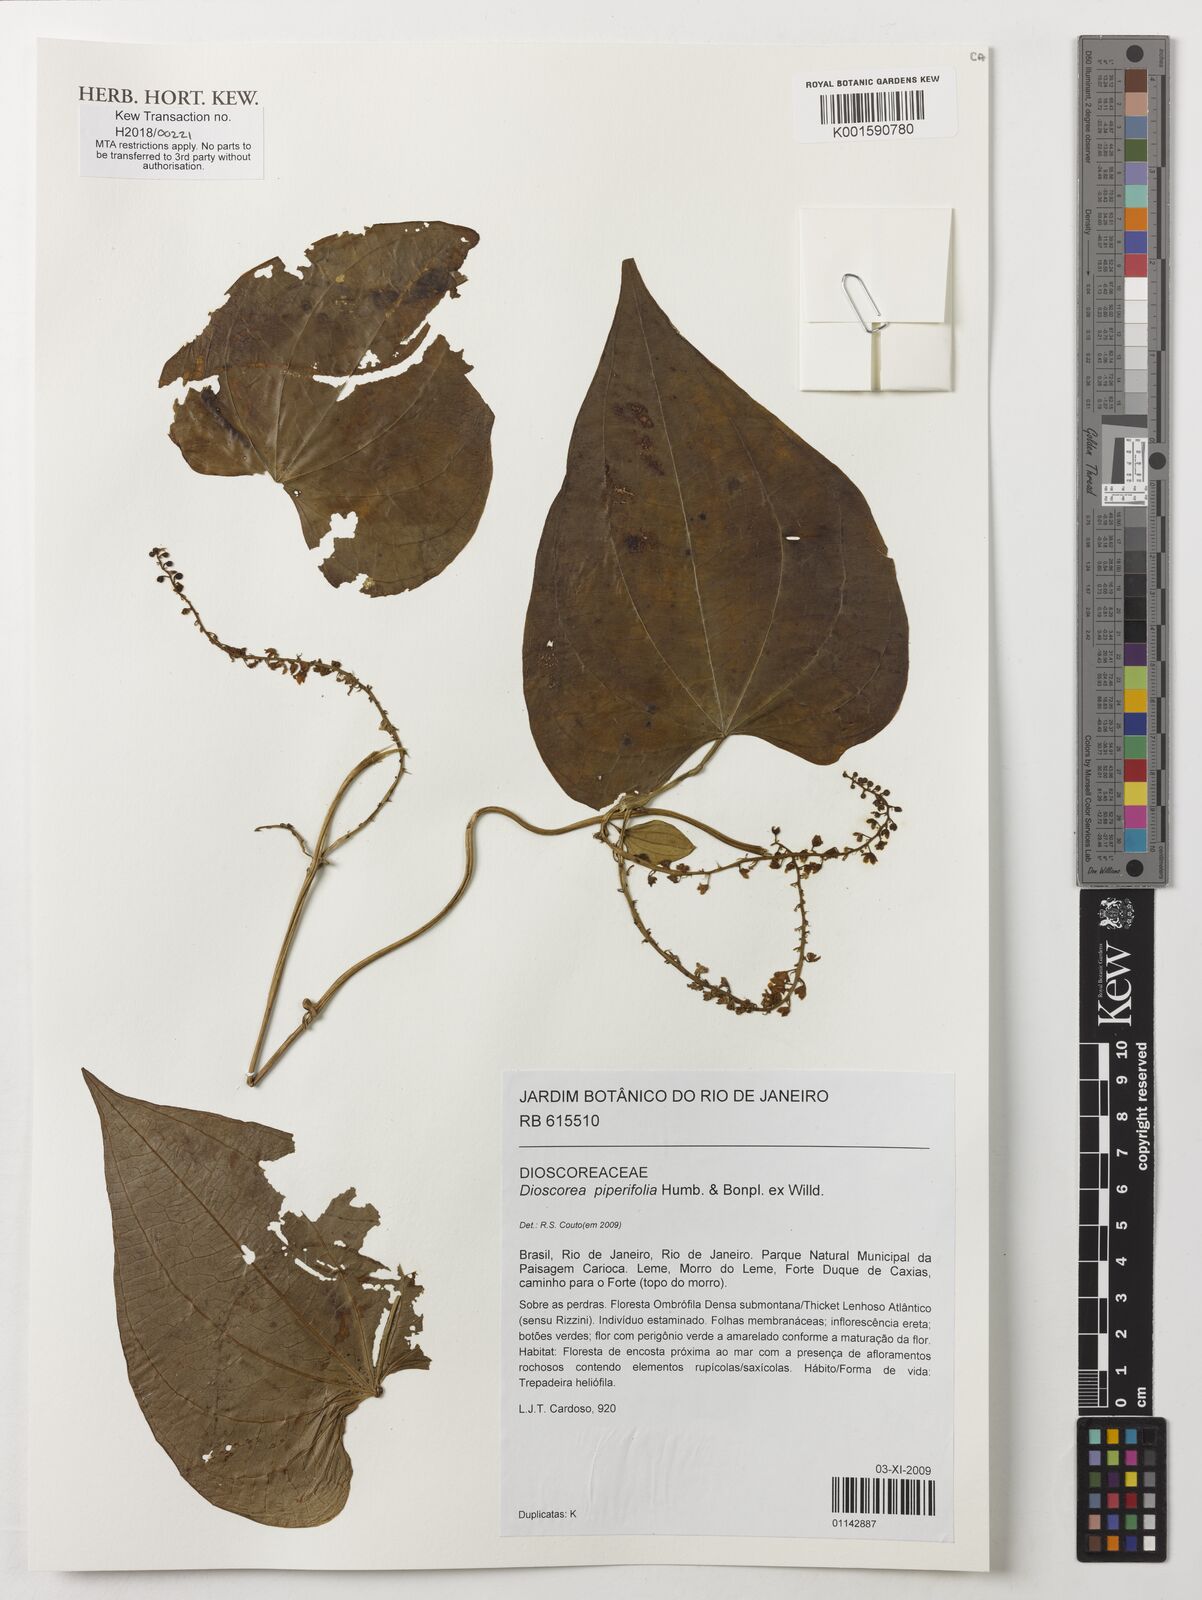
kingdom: Plantae
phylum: Tracheophyta
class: Liliopsida
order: Dioscoreales
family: Dioscoreaceae
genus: Dioscorea
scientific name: Dioscorea piperifolia
